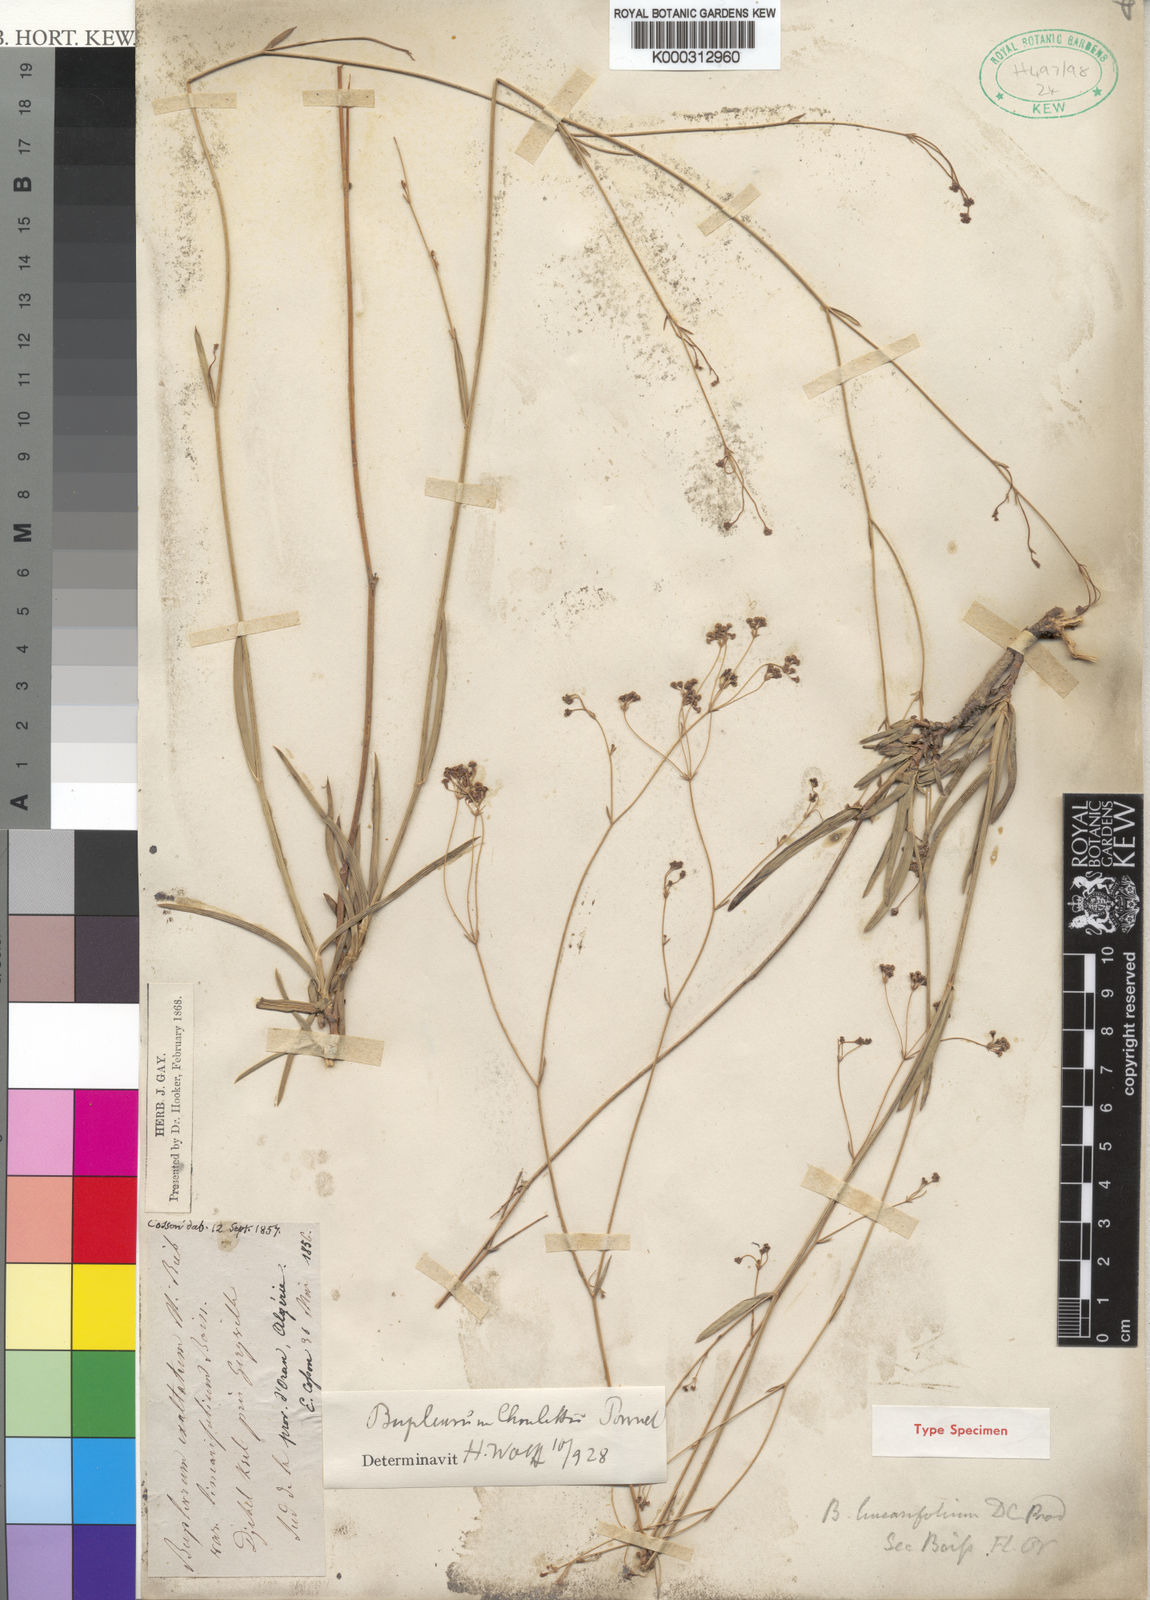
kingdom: Plantae
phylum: Tracheophyta
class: Magnoliopsida
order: Apiales
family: Apiaceae
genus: Bupleurum
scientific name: Bupleurum oligactis
